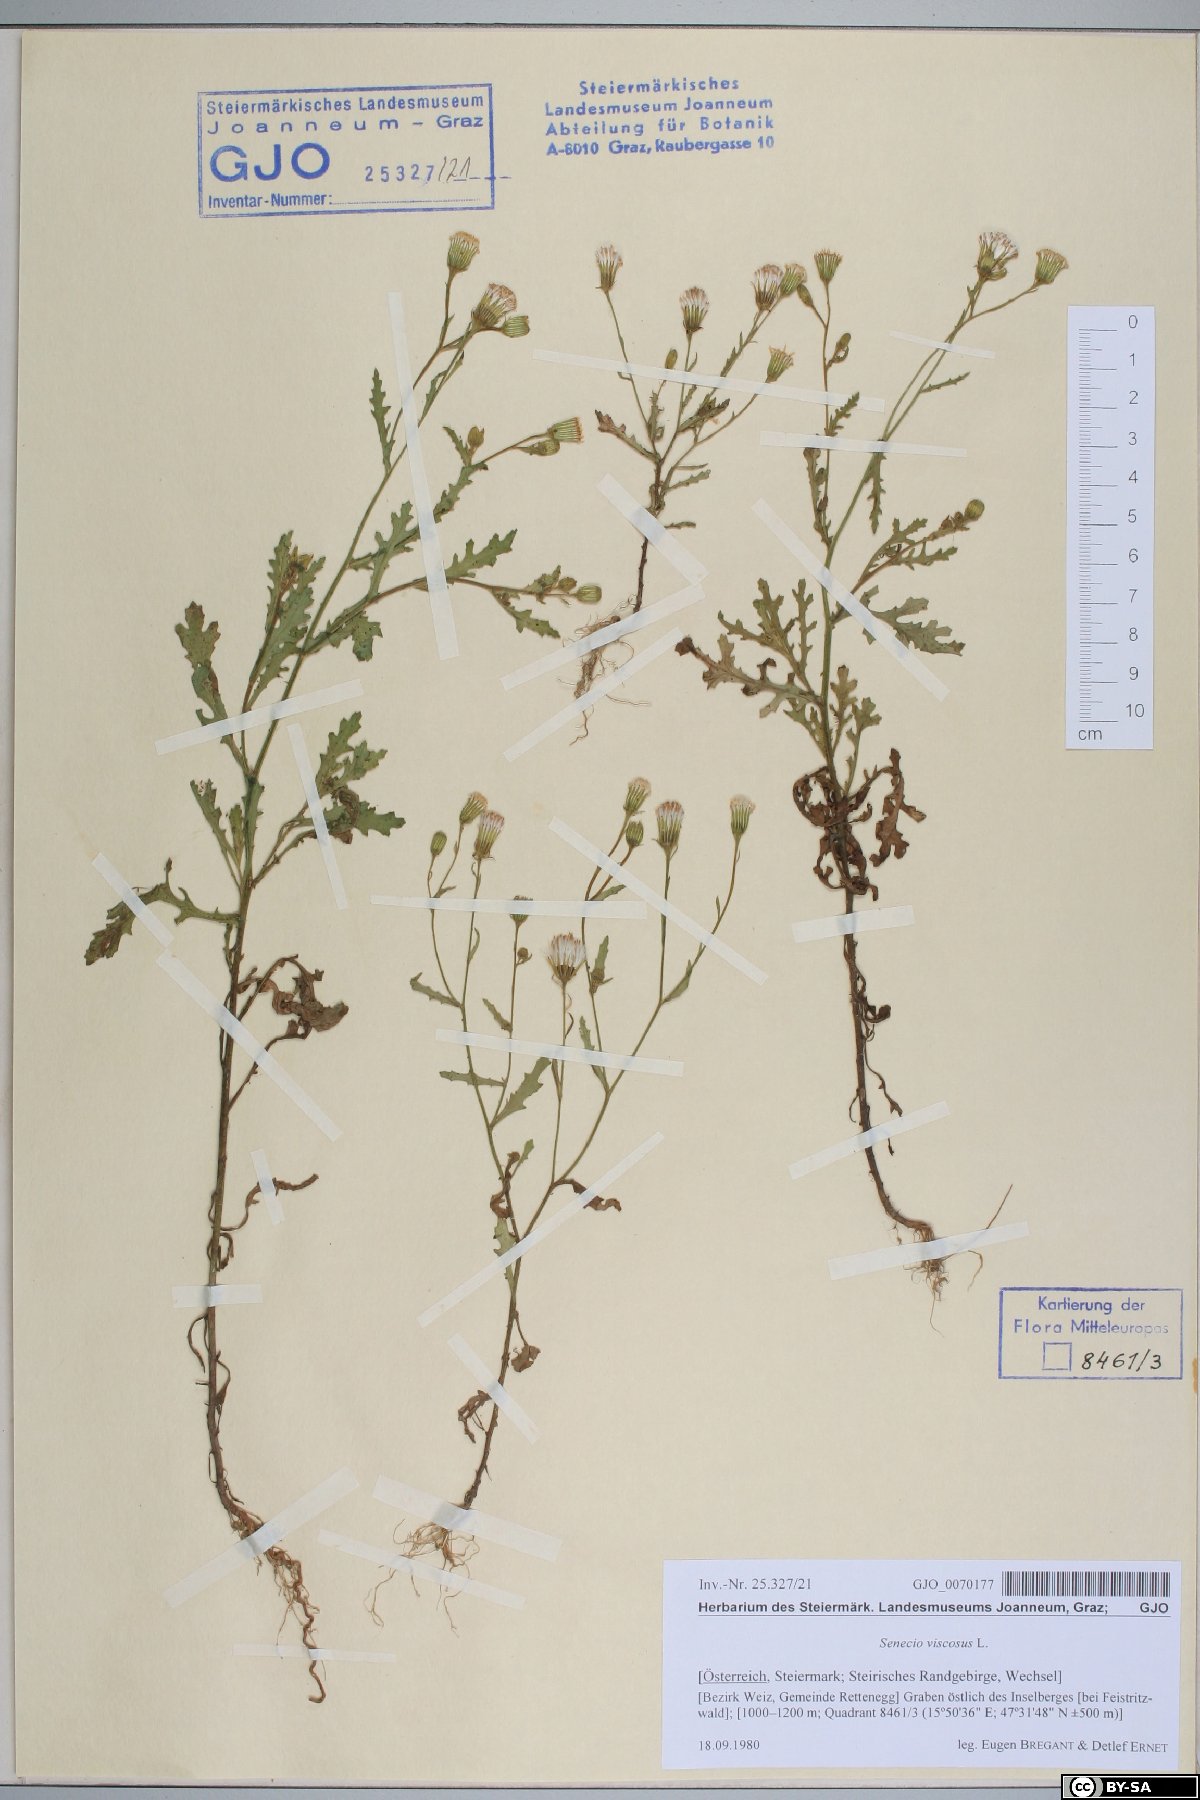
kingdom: Plantae
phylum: Tracheophyta
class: Magnoliopsida
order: Asterales
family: Asteraceae
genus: Senecio
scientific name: Senecio viscosus
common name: Sticky groundsel
